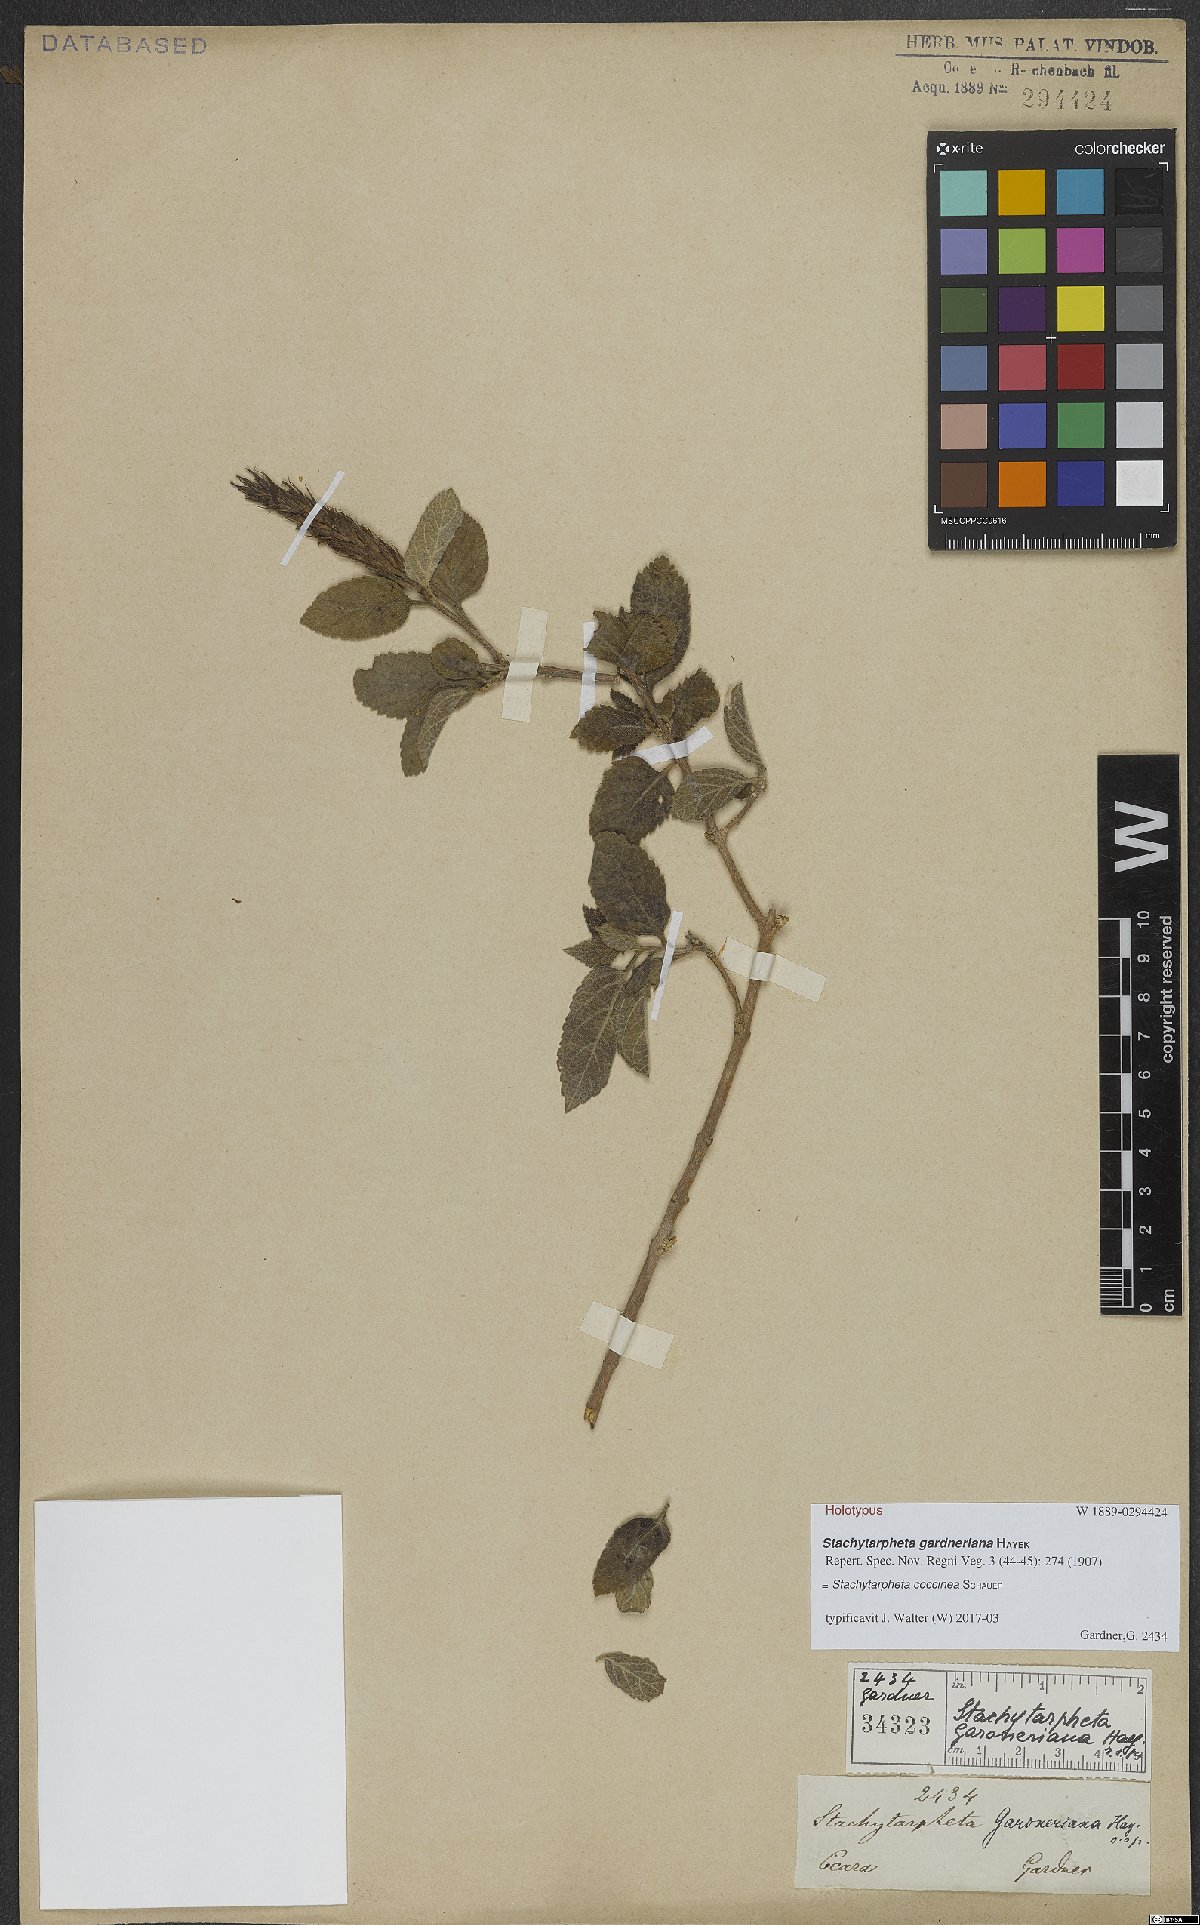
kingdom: Plantae
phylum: Tracheophyta
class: Magnoliopsida
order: Lamiales
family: Verbenaceae
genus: Stachytarpheta
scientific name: Stachytarpheta coccinea
